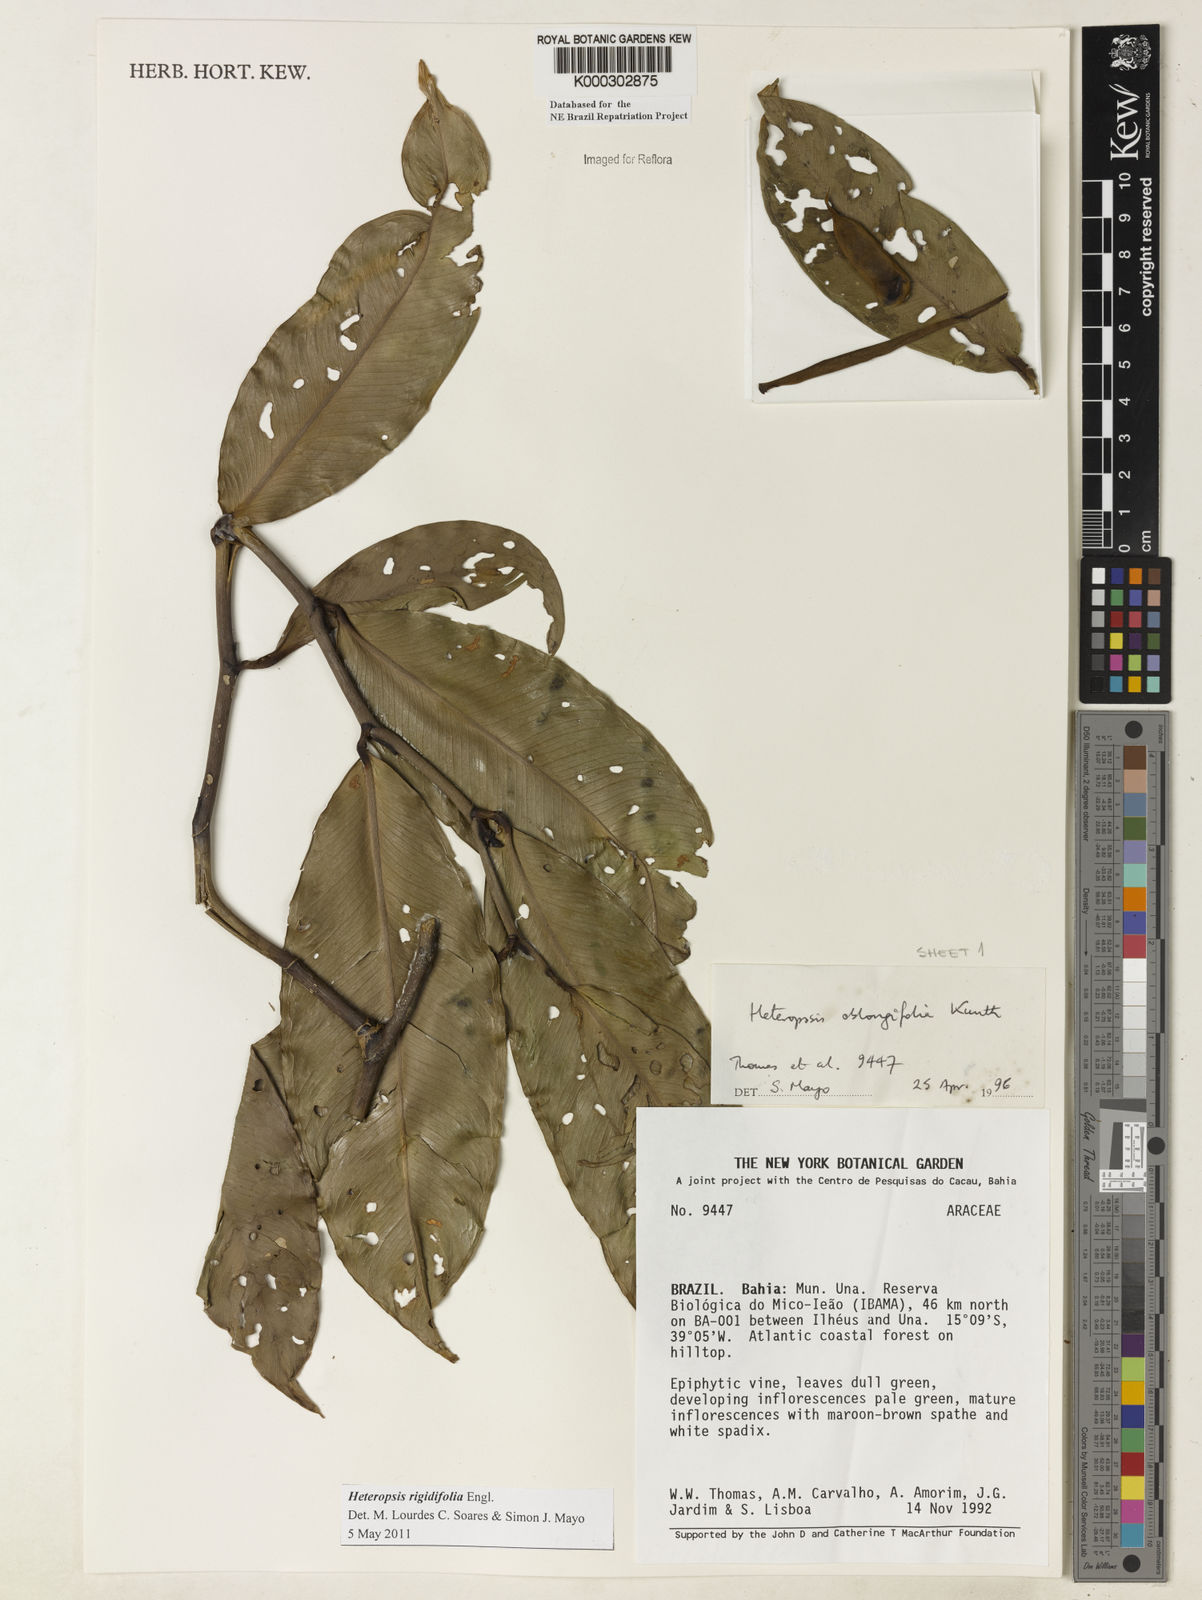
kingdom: Plantae
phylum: Tracheophyta
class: Liliopsida
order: Alismatales
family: Araceae
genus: Heteropsis
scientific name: Heteropsis oblongifolia
